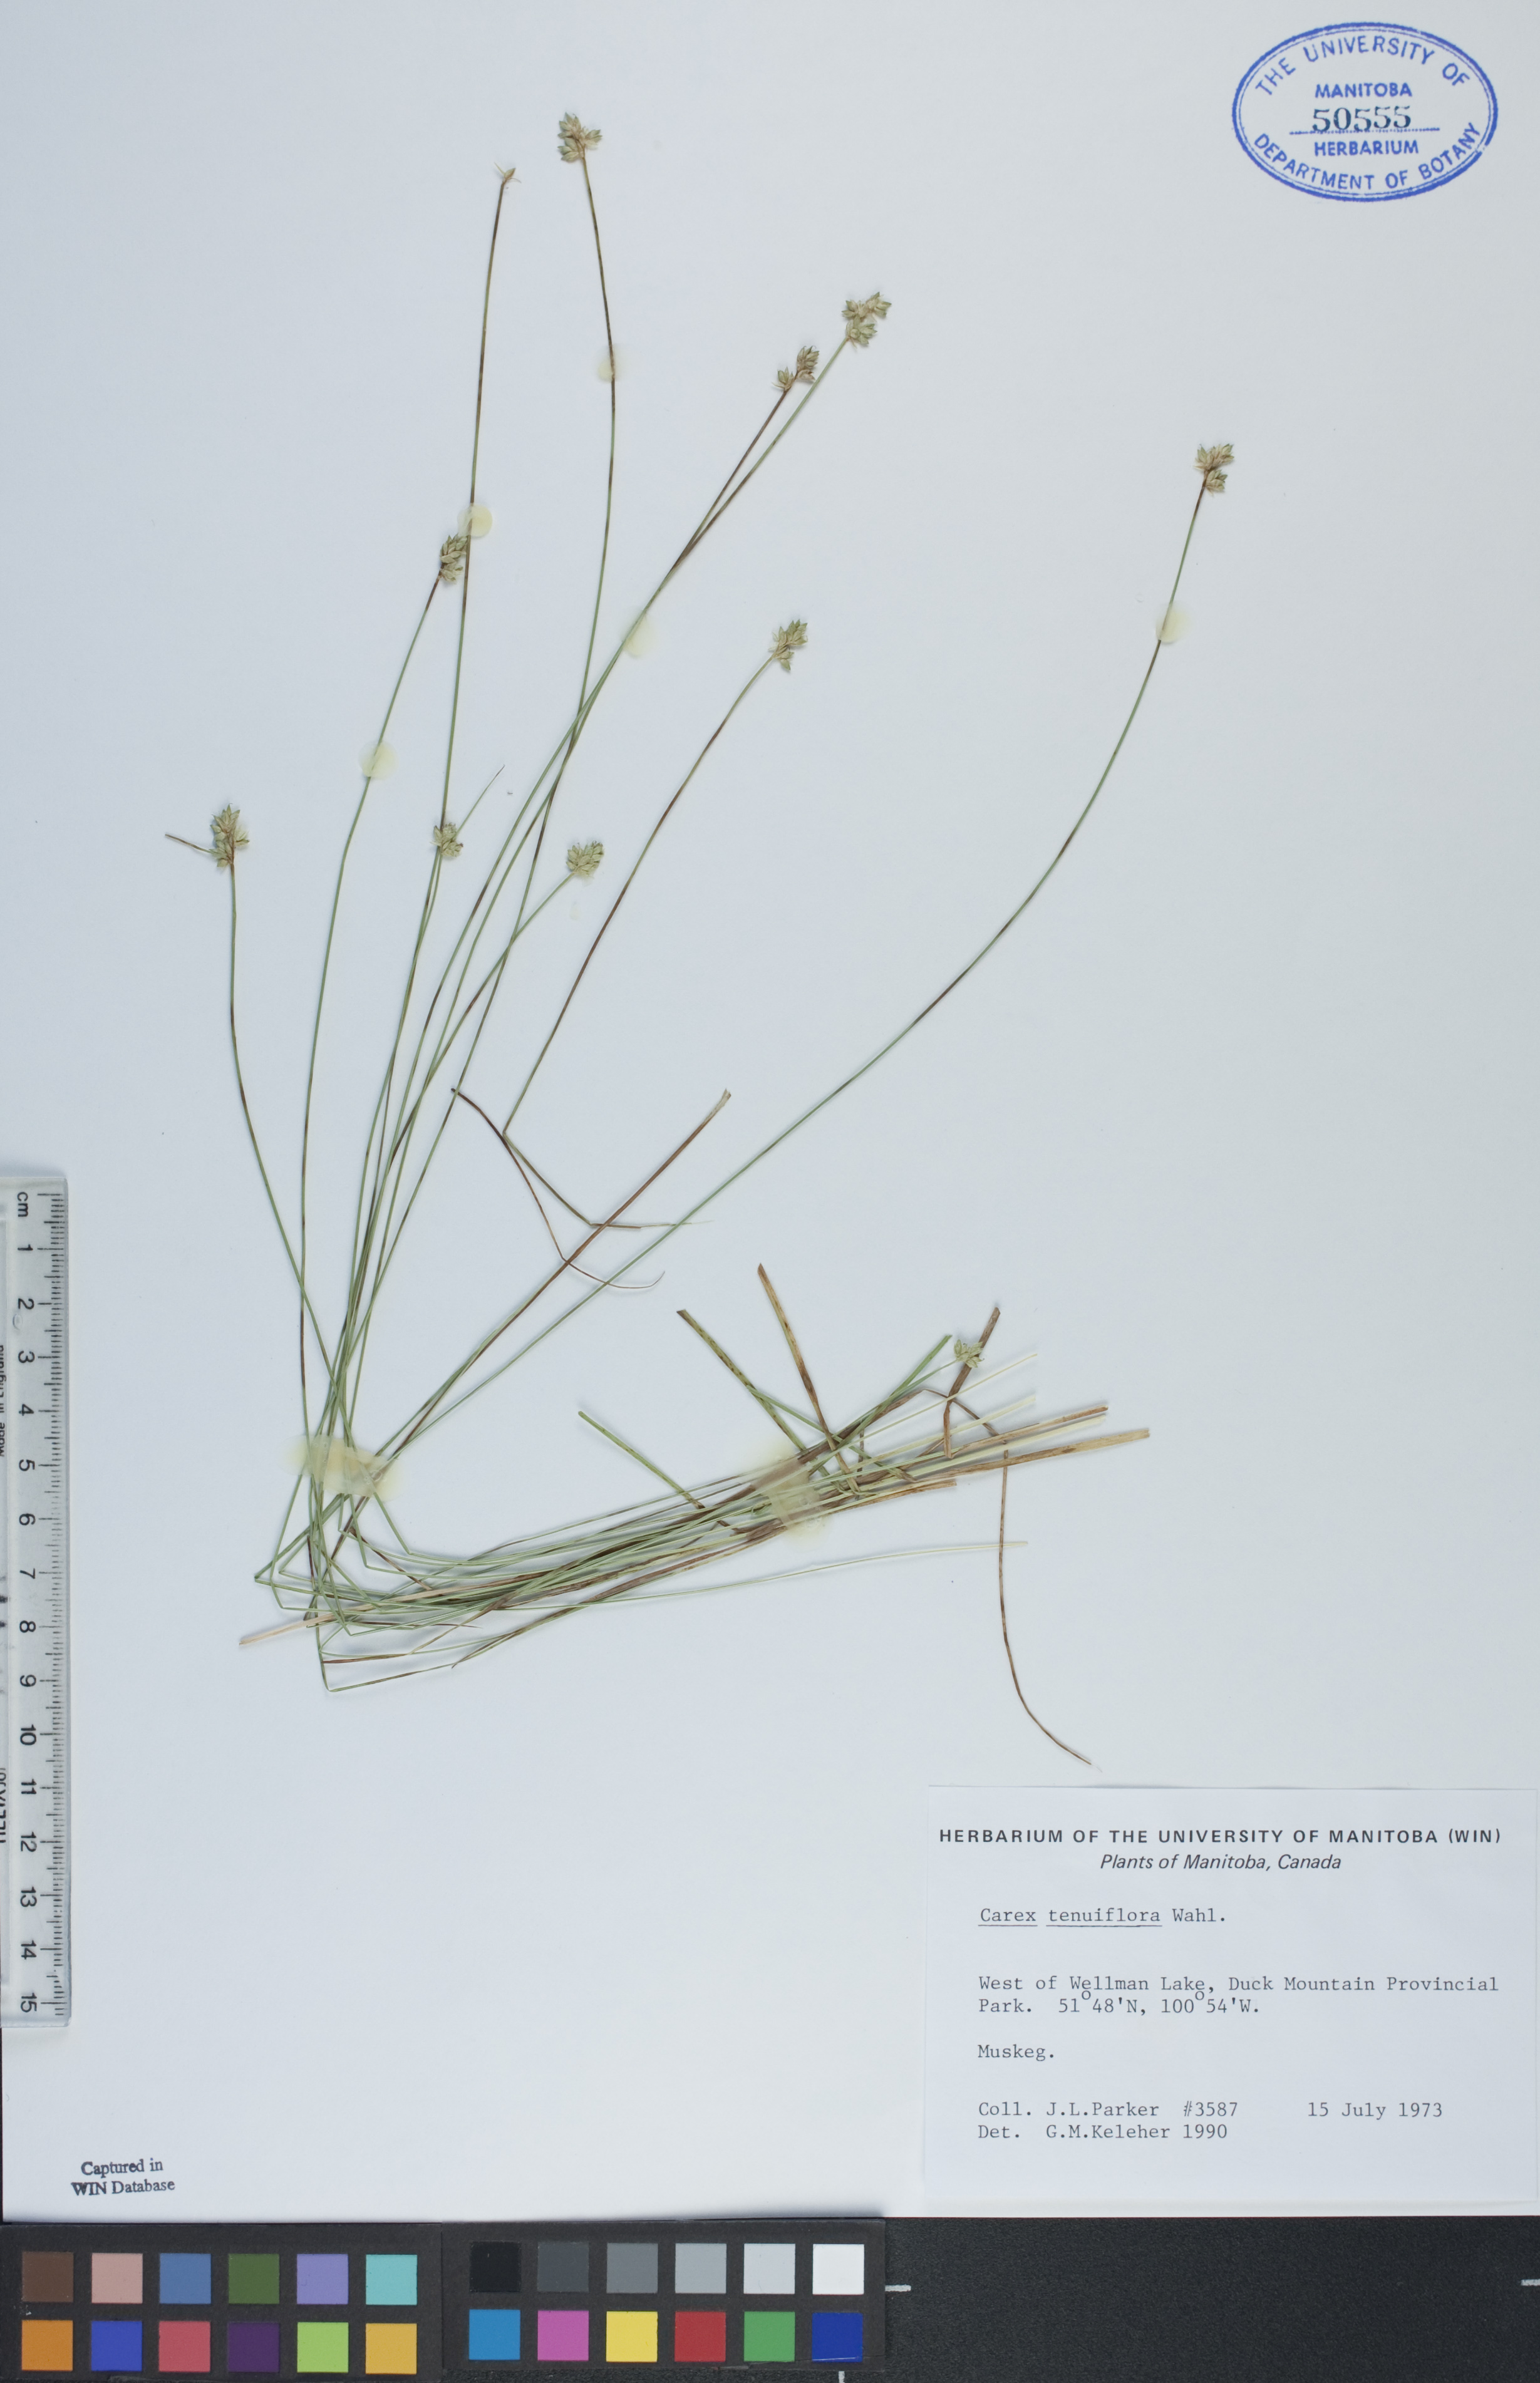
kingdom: Plantae
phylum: Tracheophyta
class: Liliopsida
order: Poales
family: Cyperaceae
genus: Carex
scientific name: Carex tenera
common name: Broad-fruited sedge
